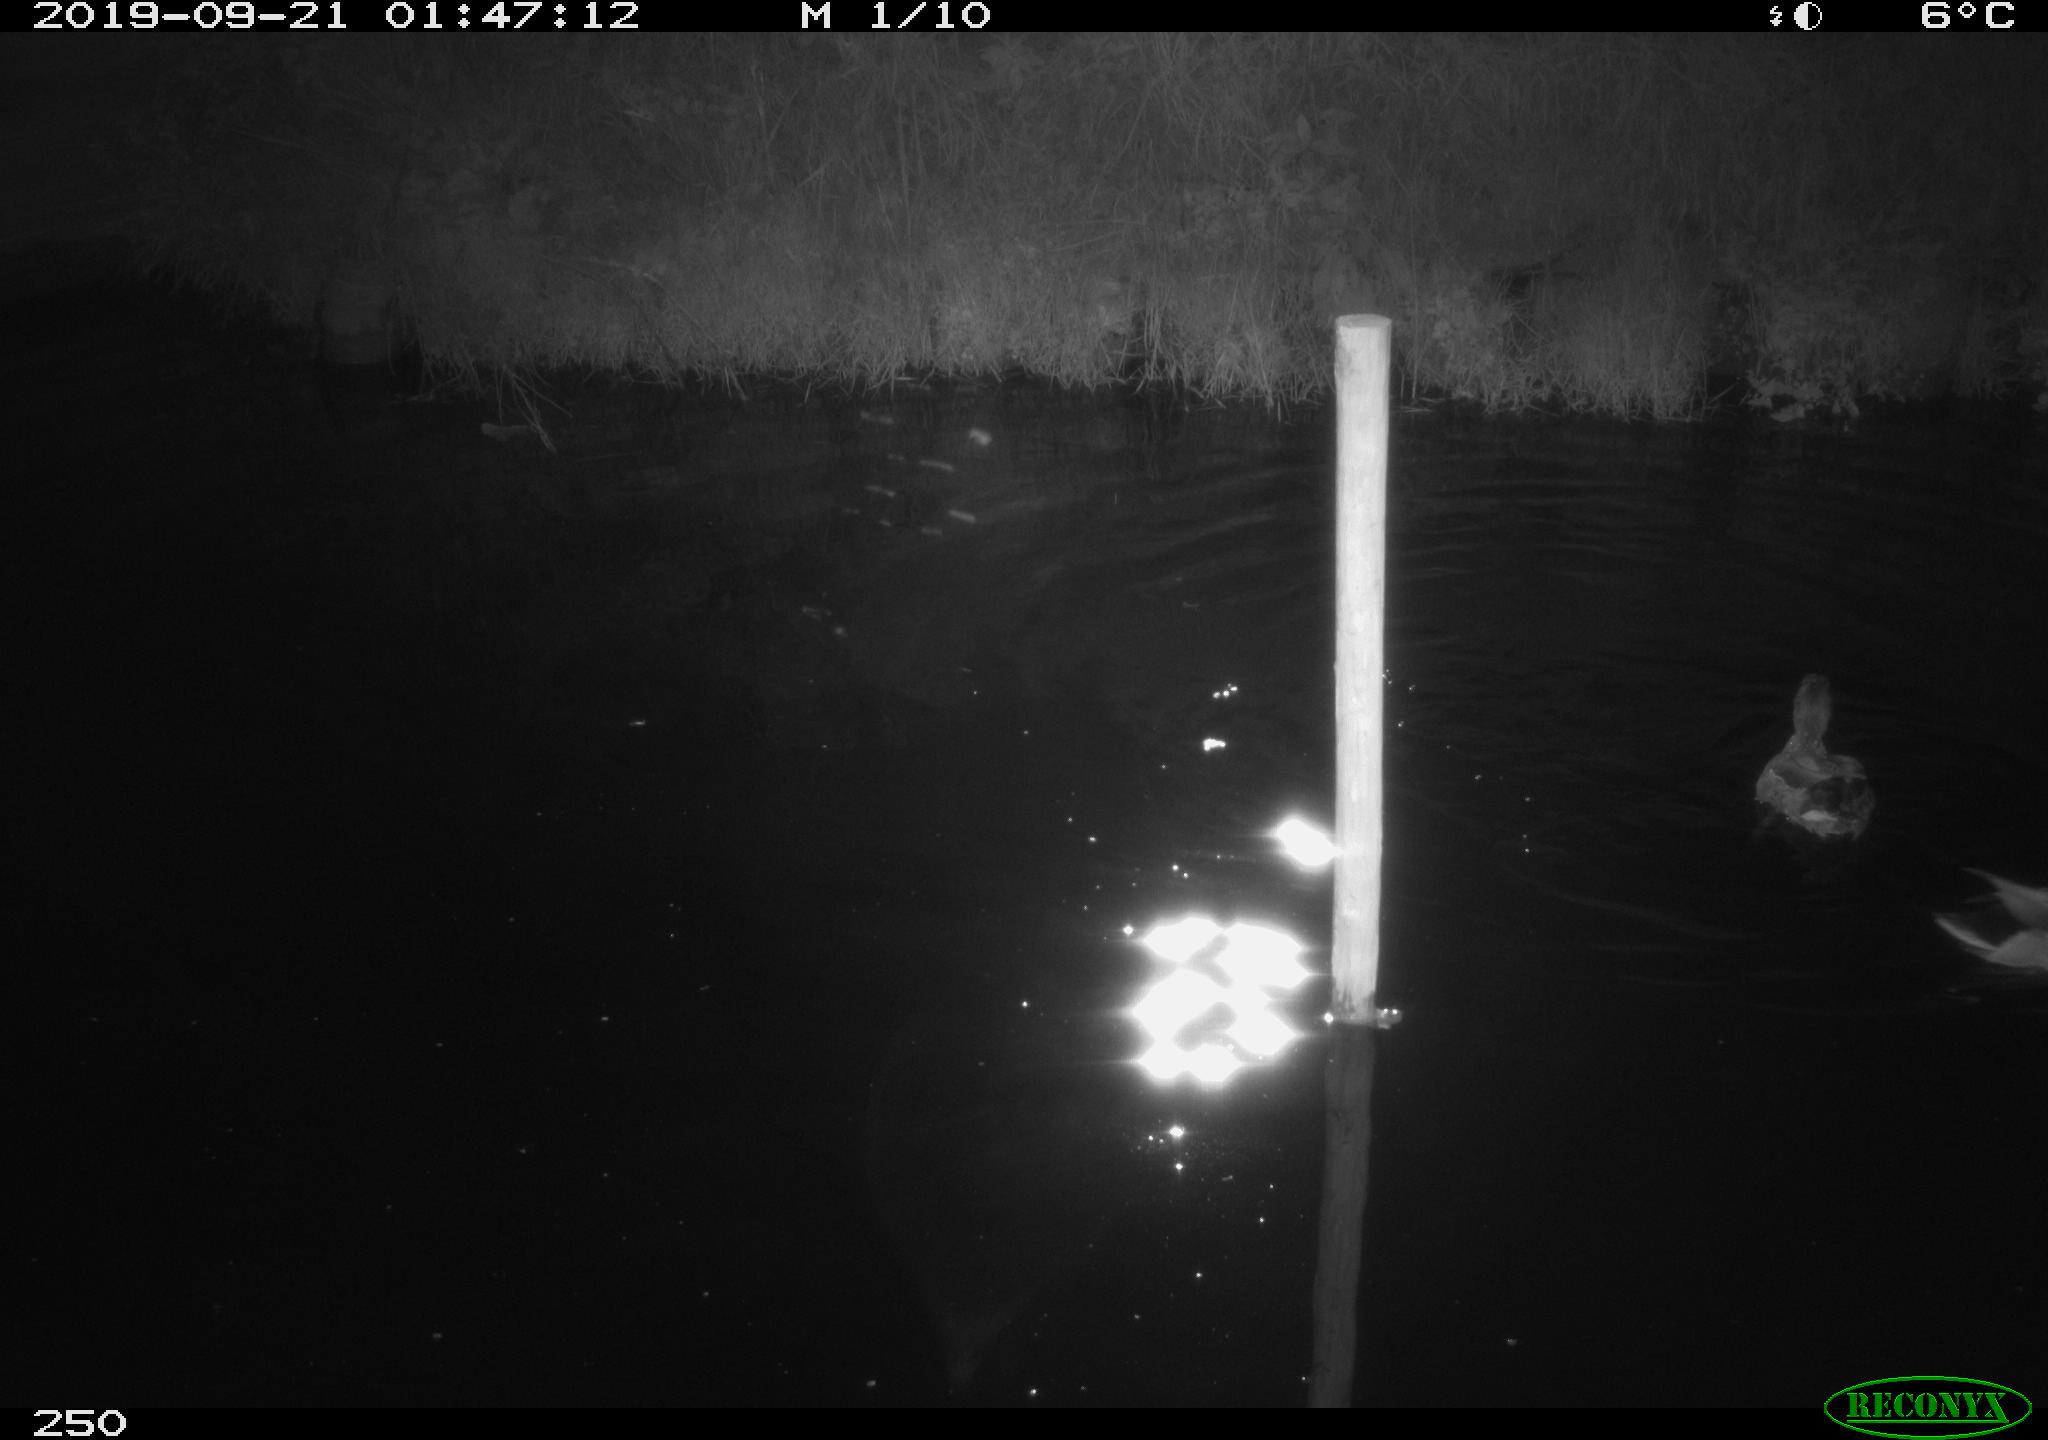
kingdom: Animalia
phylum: Chordata
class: Aves
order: Anseriformes
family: Anatidae
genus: Anas
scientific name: Anas platyrhynchos
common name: Mallard
